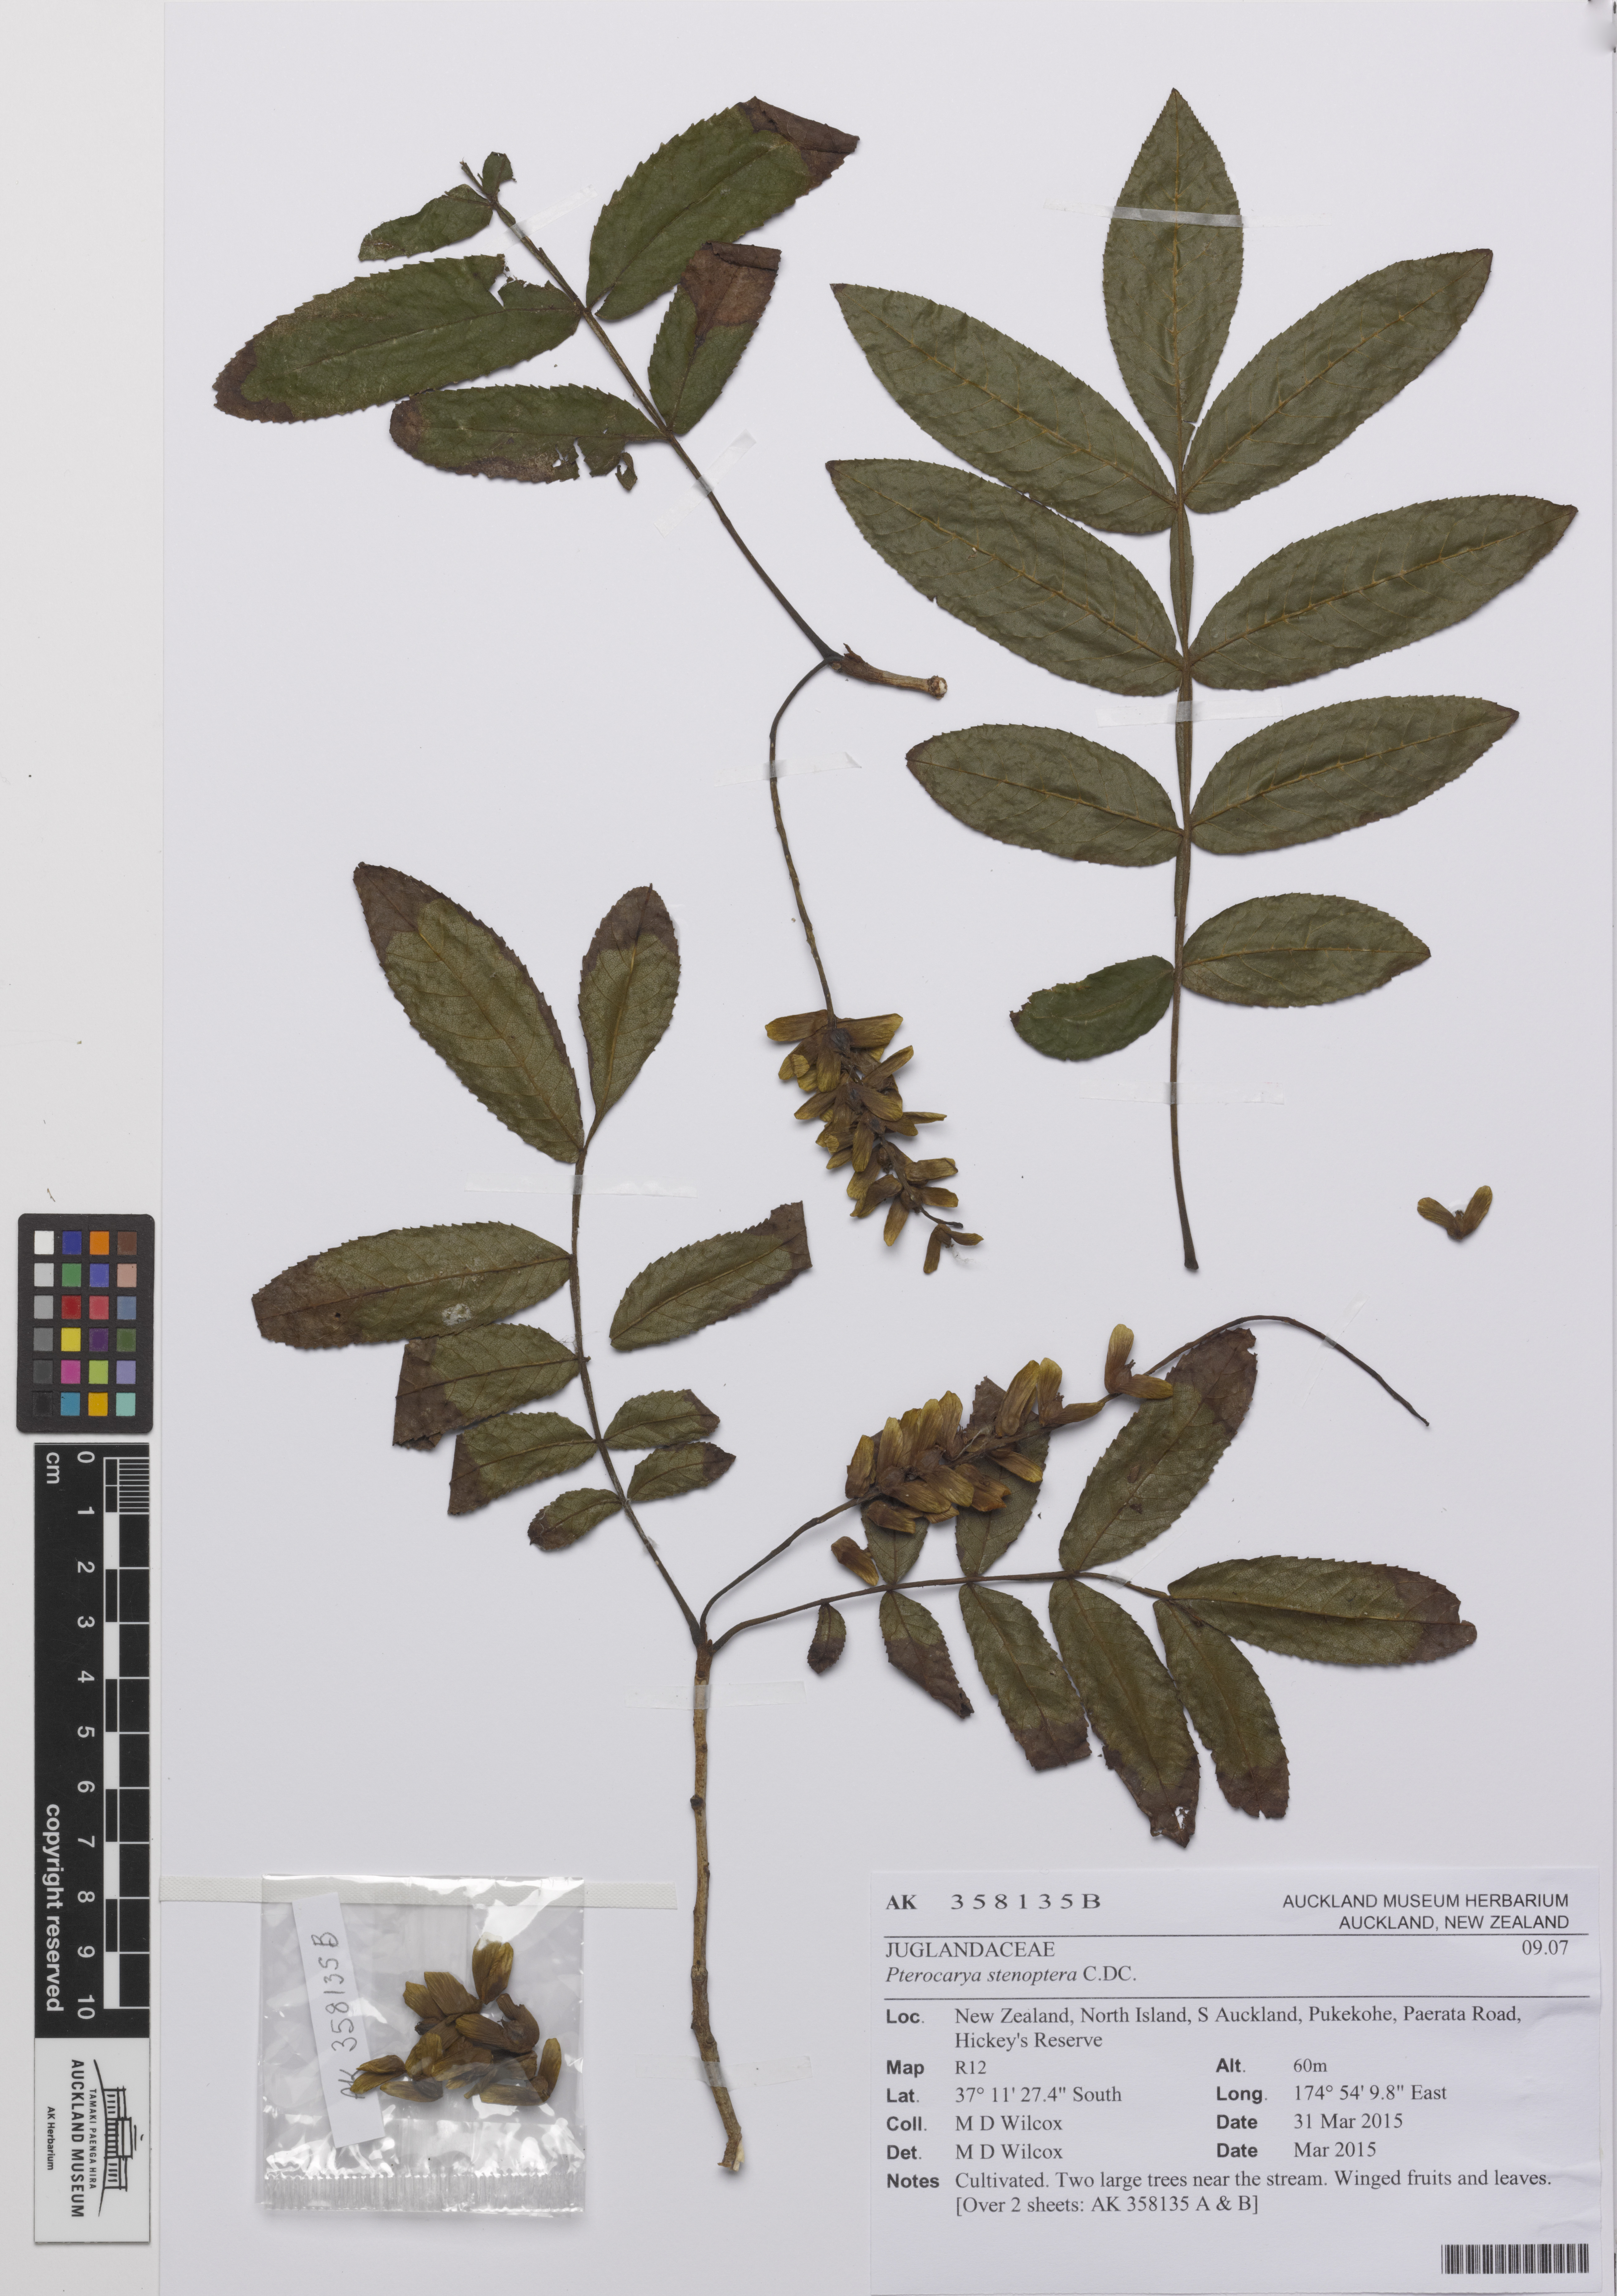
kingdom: Plantae
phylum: Tracheophyta
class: Magnoliopsida
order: Fagales
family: Juglandaceae
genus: Pterocarya
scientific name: Pterocarya stenoptera
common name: Chinese wingnut
